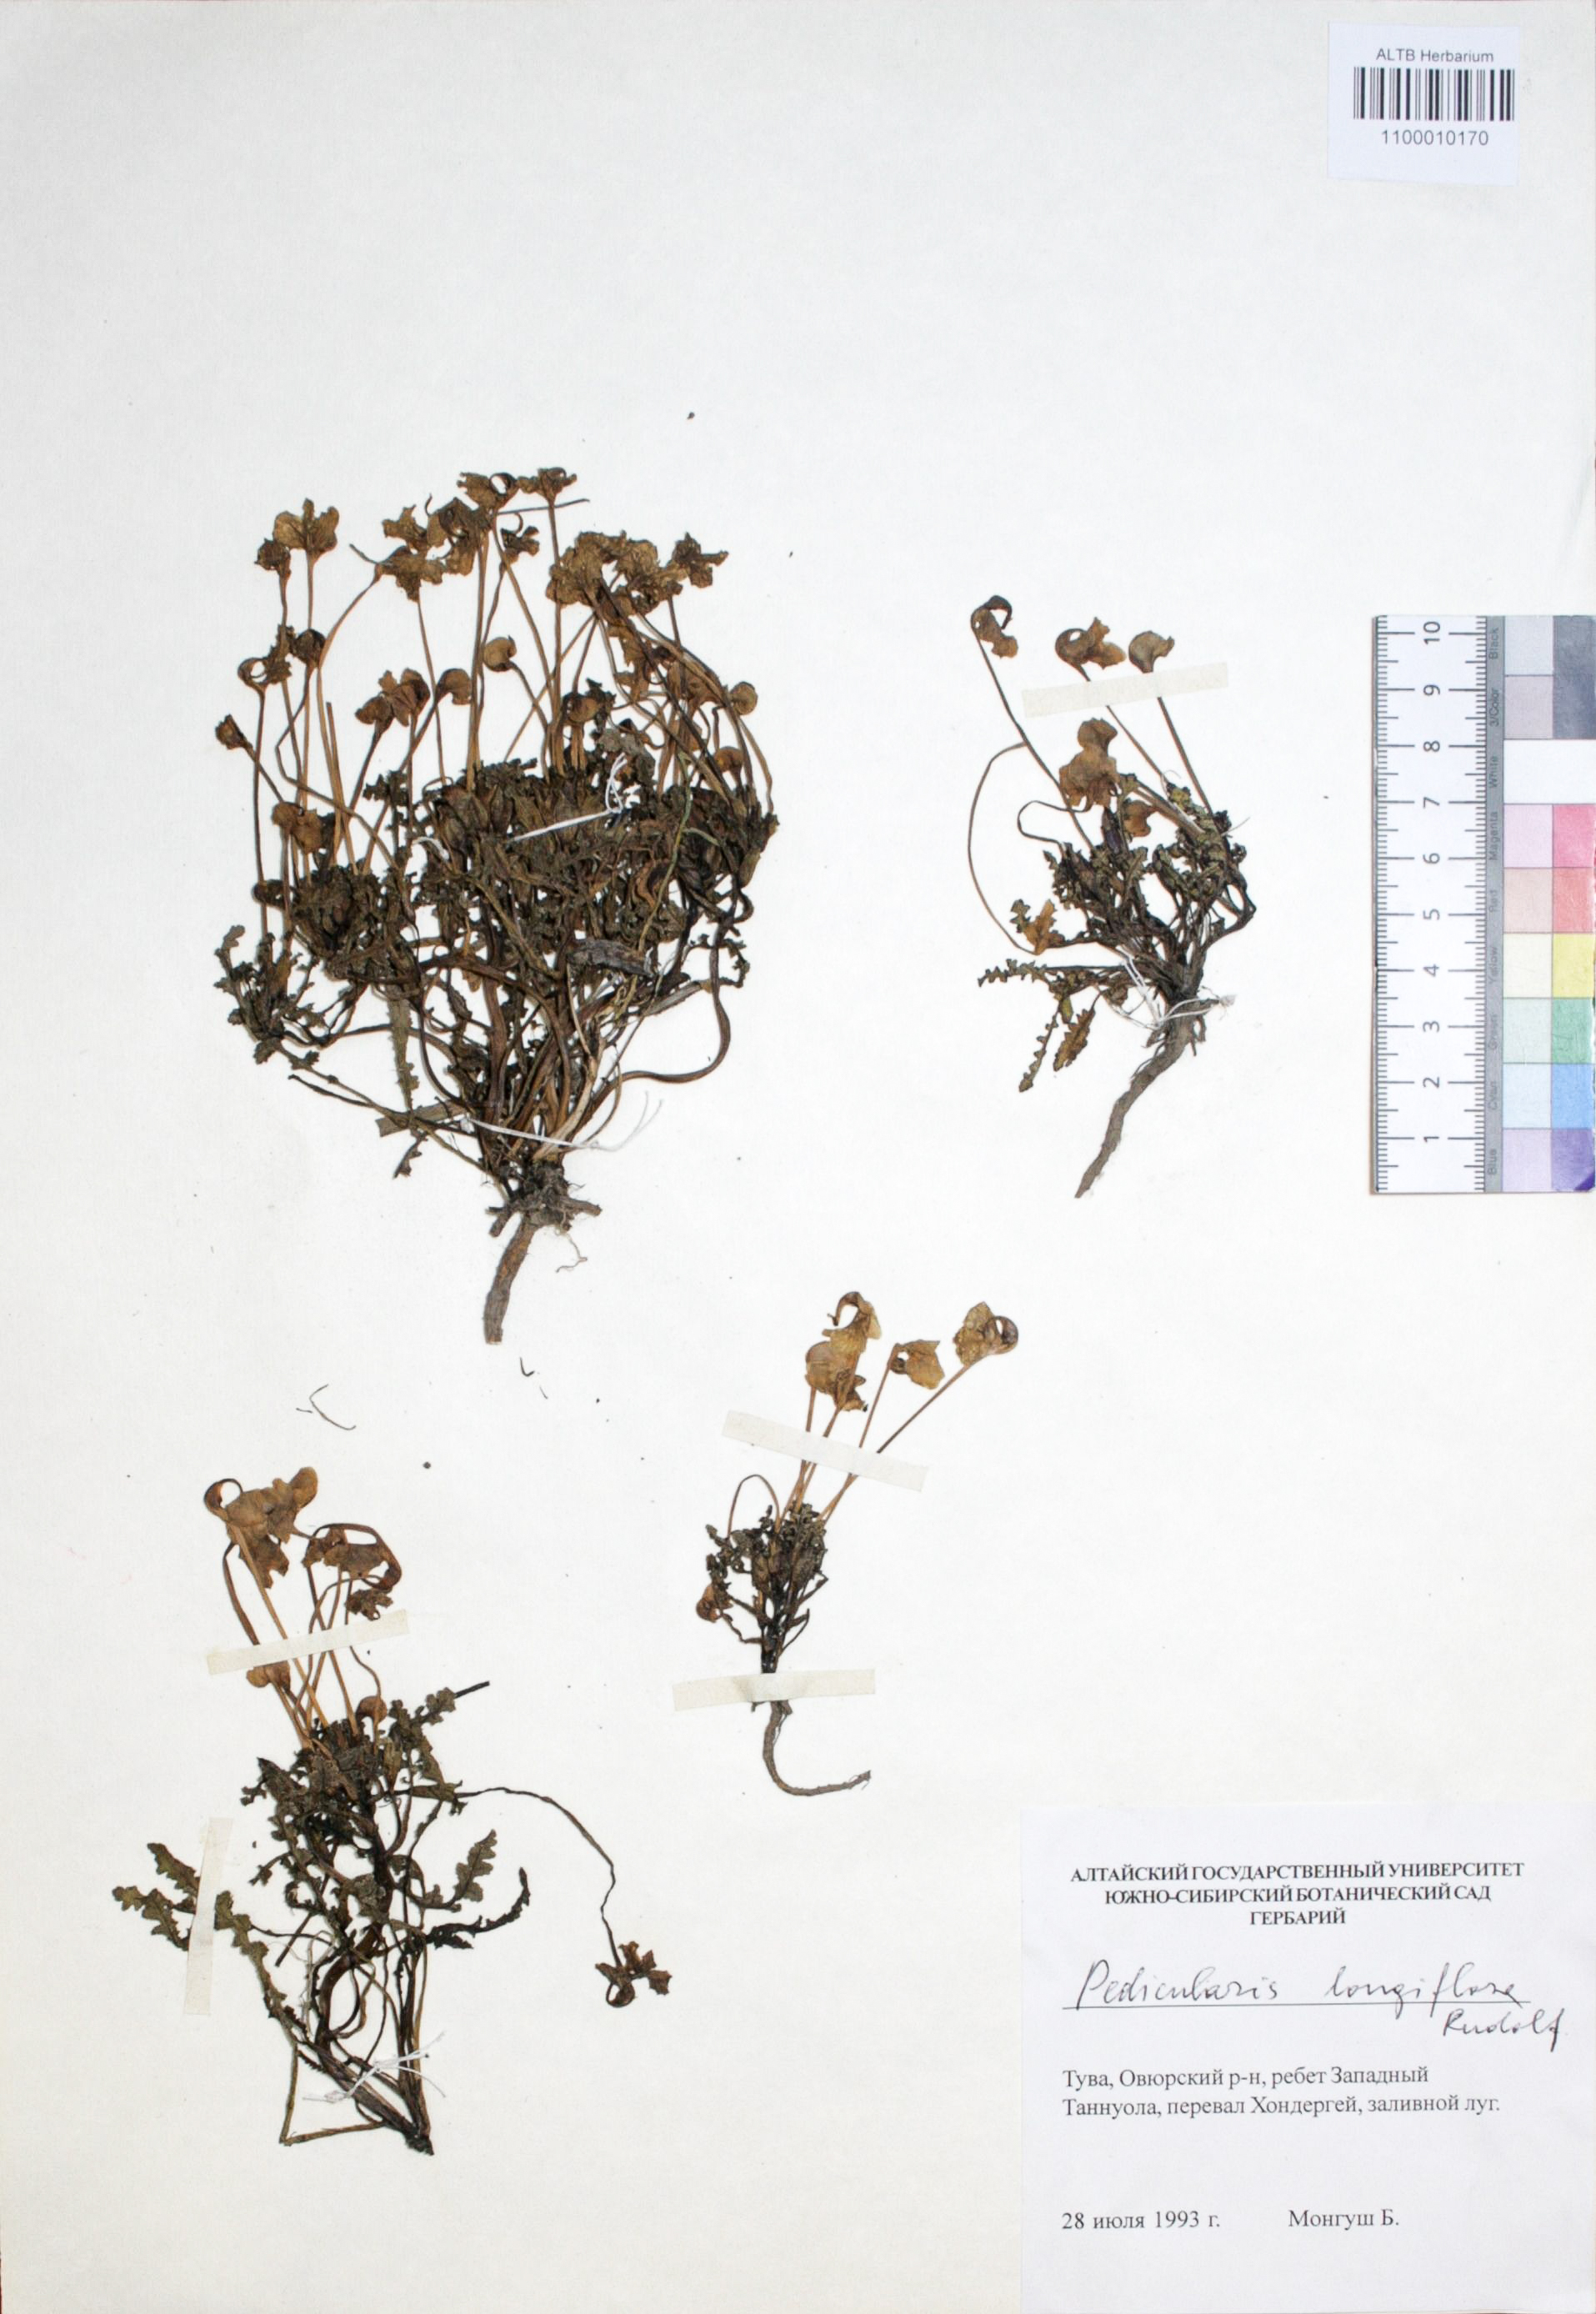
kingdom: Plantae
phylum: Tracheophyta
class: Magnoliopsida
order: Lamiales
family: Orobanchaceae
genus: Pedicularis
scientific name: Pedicularis longiflora
